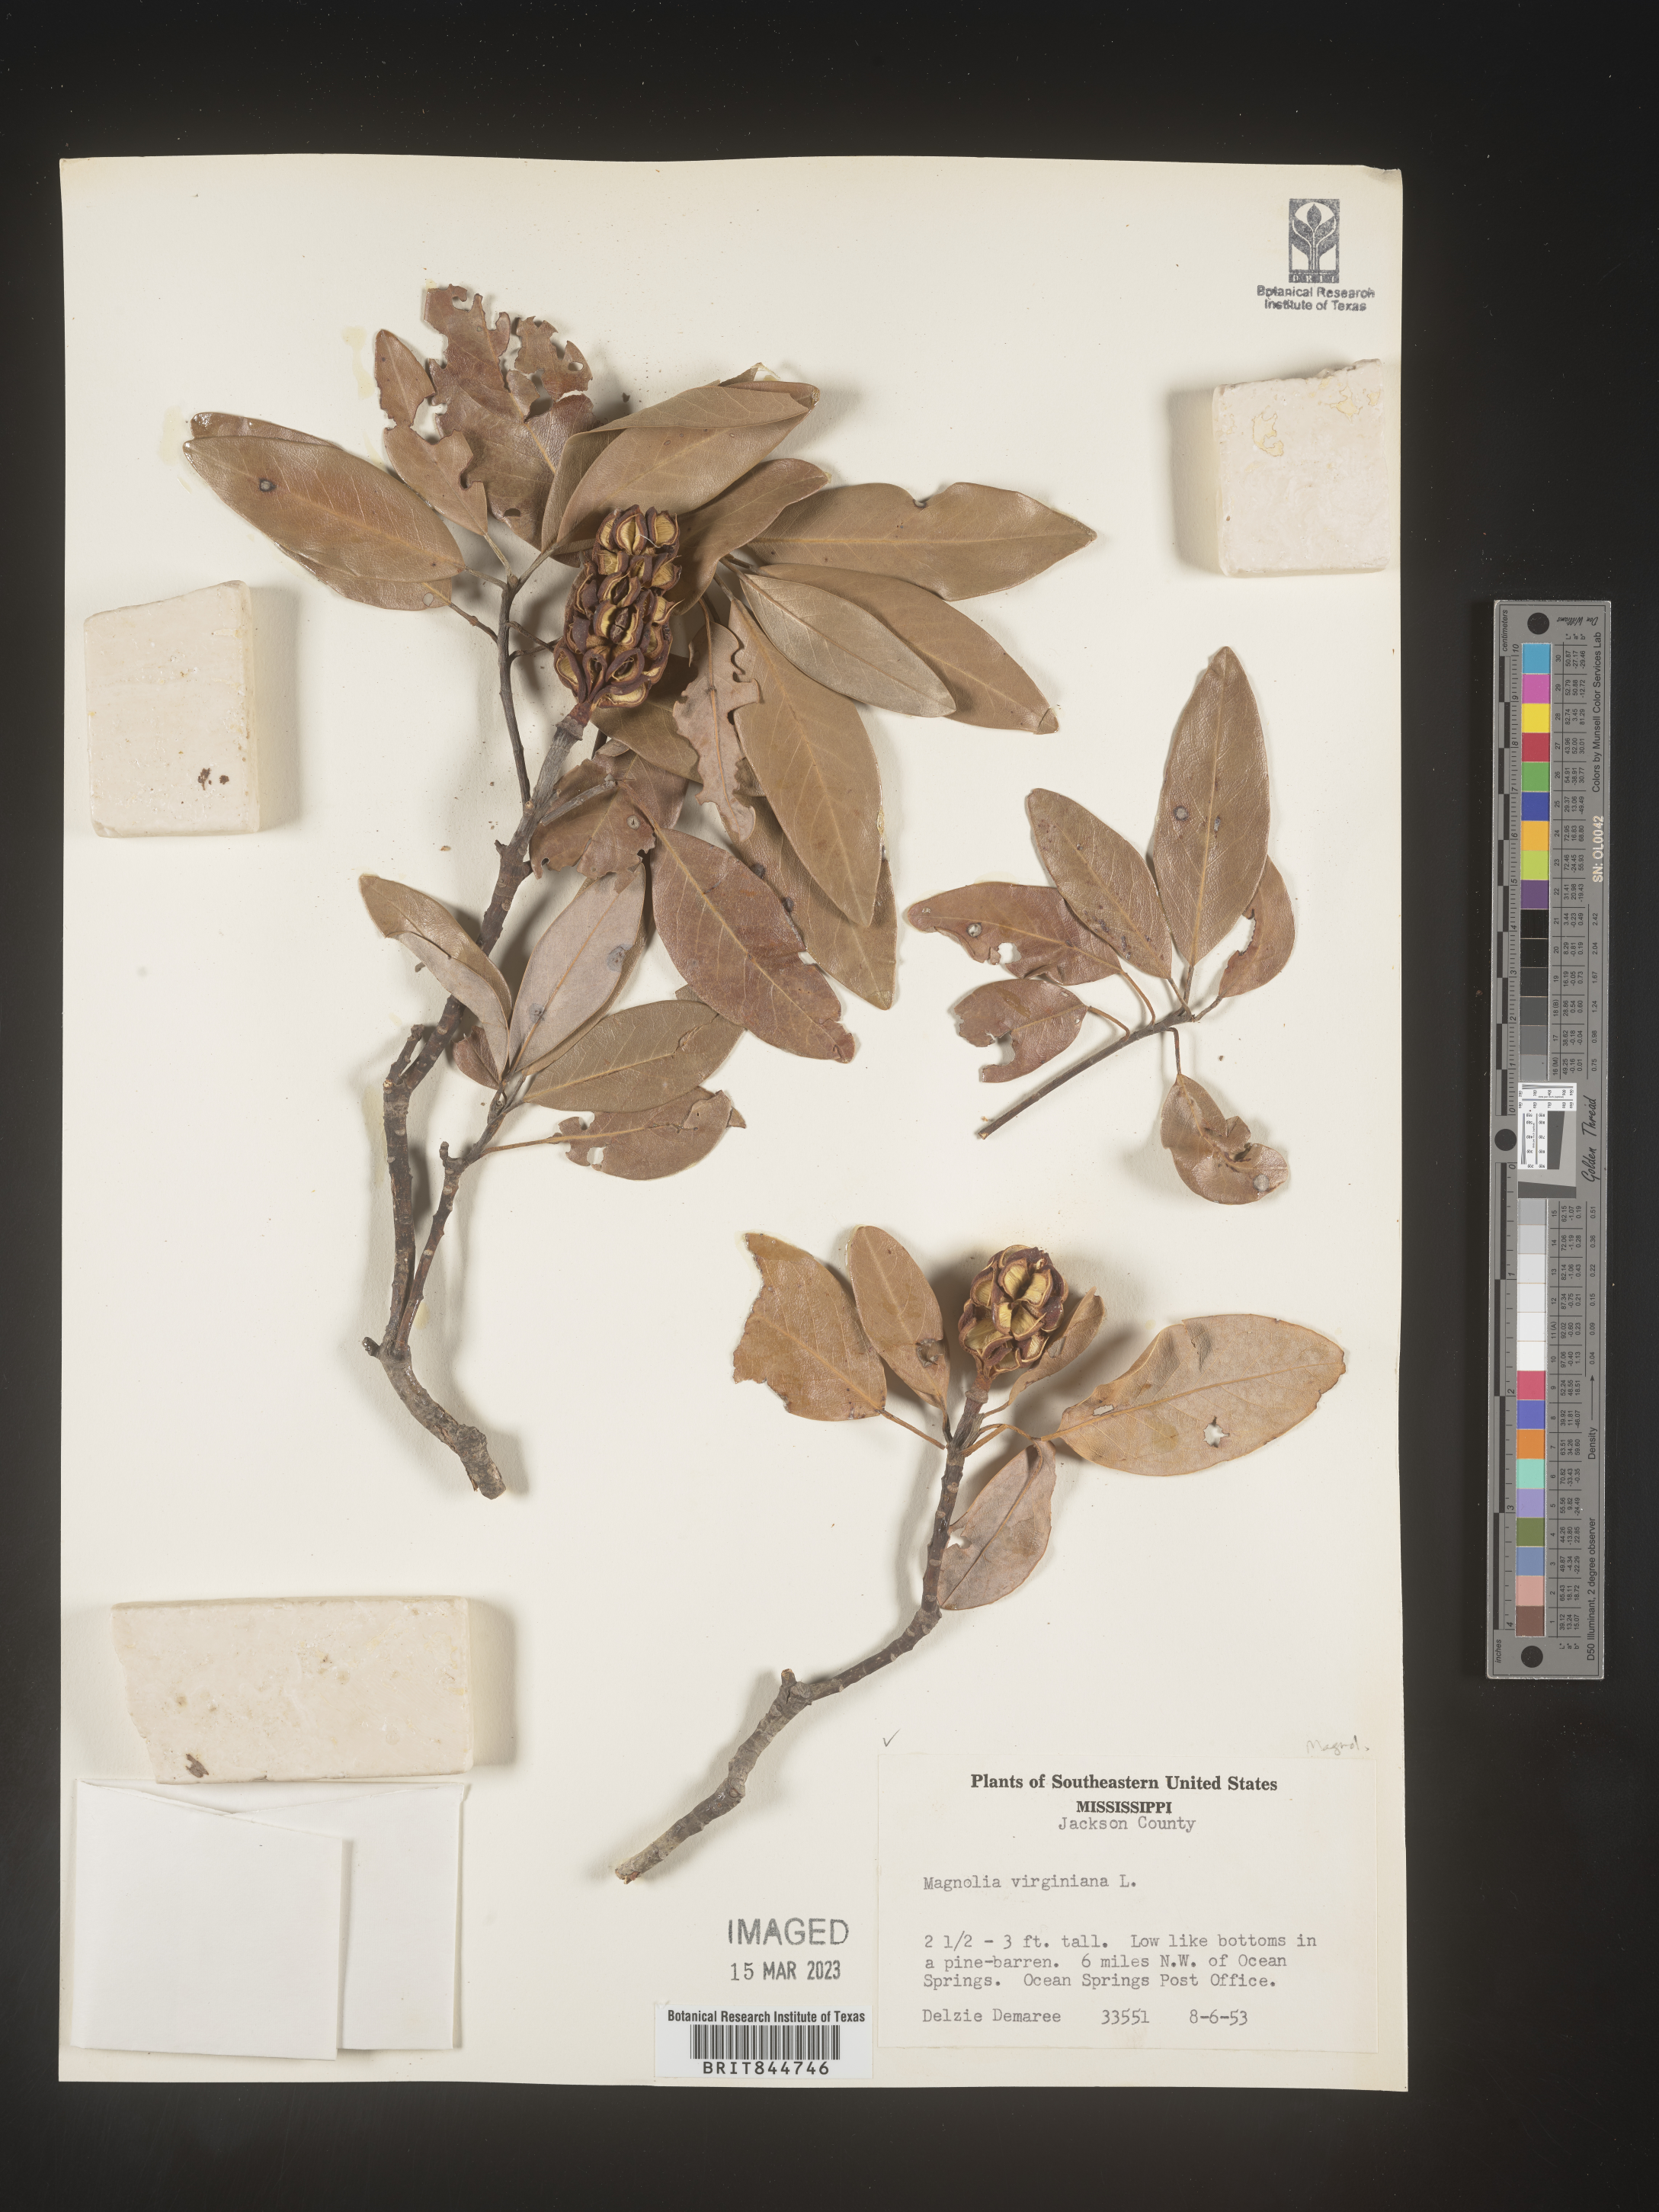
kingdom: Plantae
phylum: Tracheophyta
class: Magnoliopsida
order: Magnoliales
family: Magnoliaceae
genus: Magnolia
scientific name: Magnolia virginiana
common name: Swamp bay
